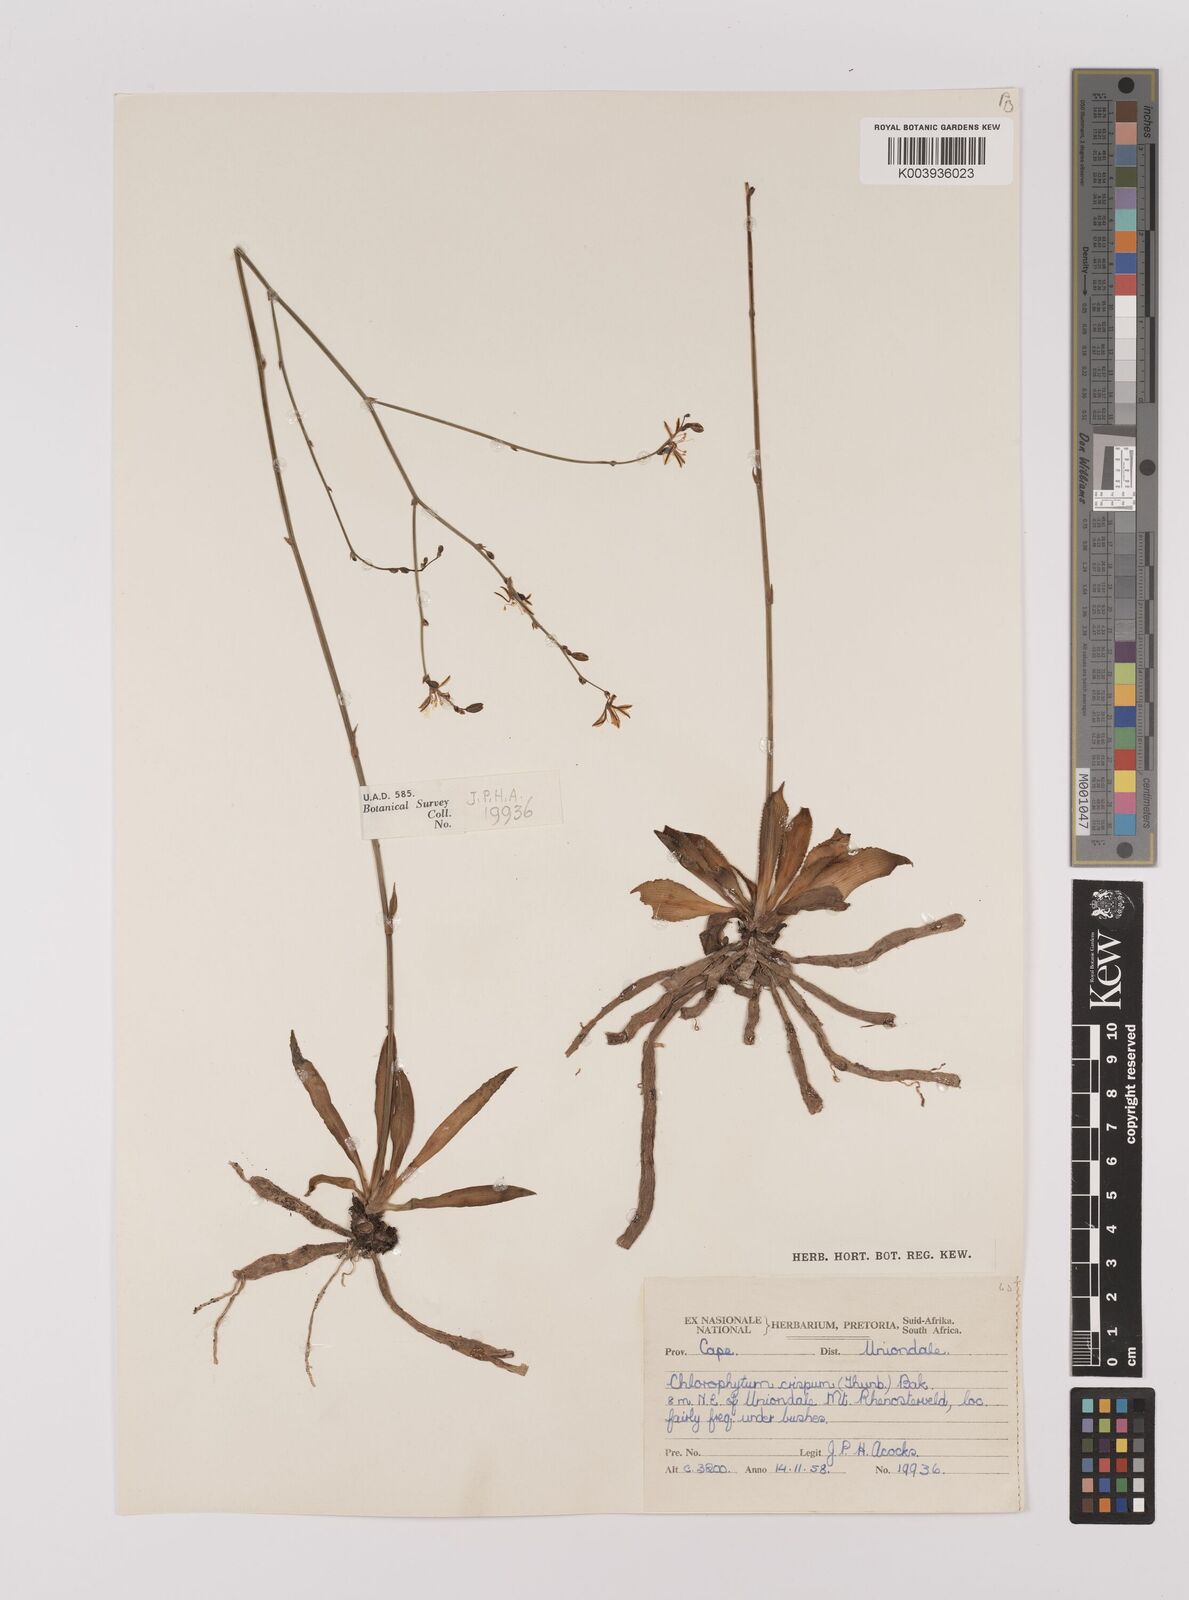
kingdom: Plantae
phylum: Tracheophyta
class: Liliopsida
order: Asparagales
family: Asparagaceae
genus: Chlorophytum
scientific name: Chlorophytum crispum
